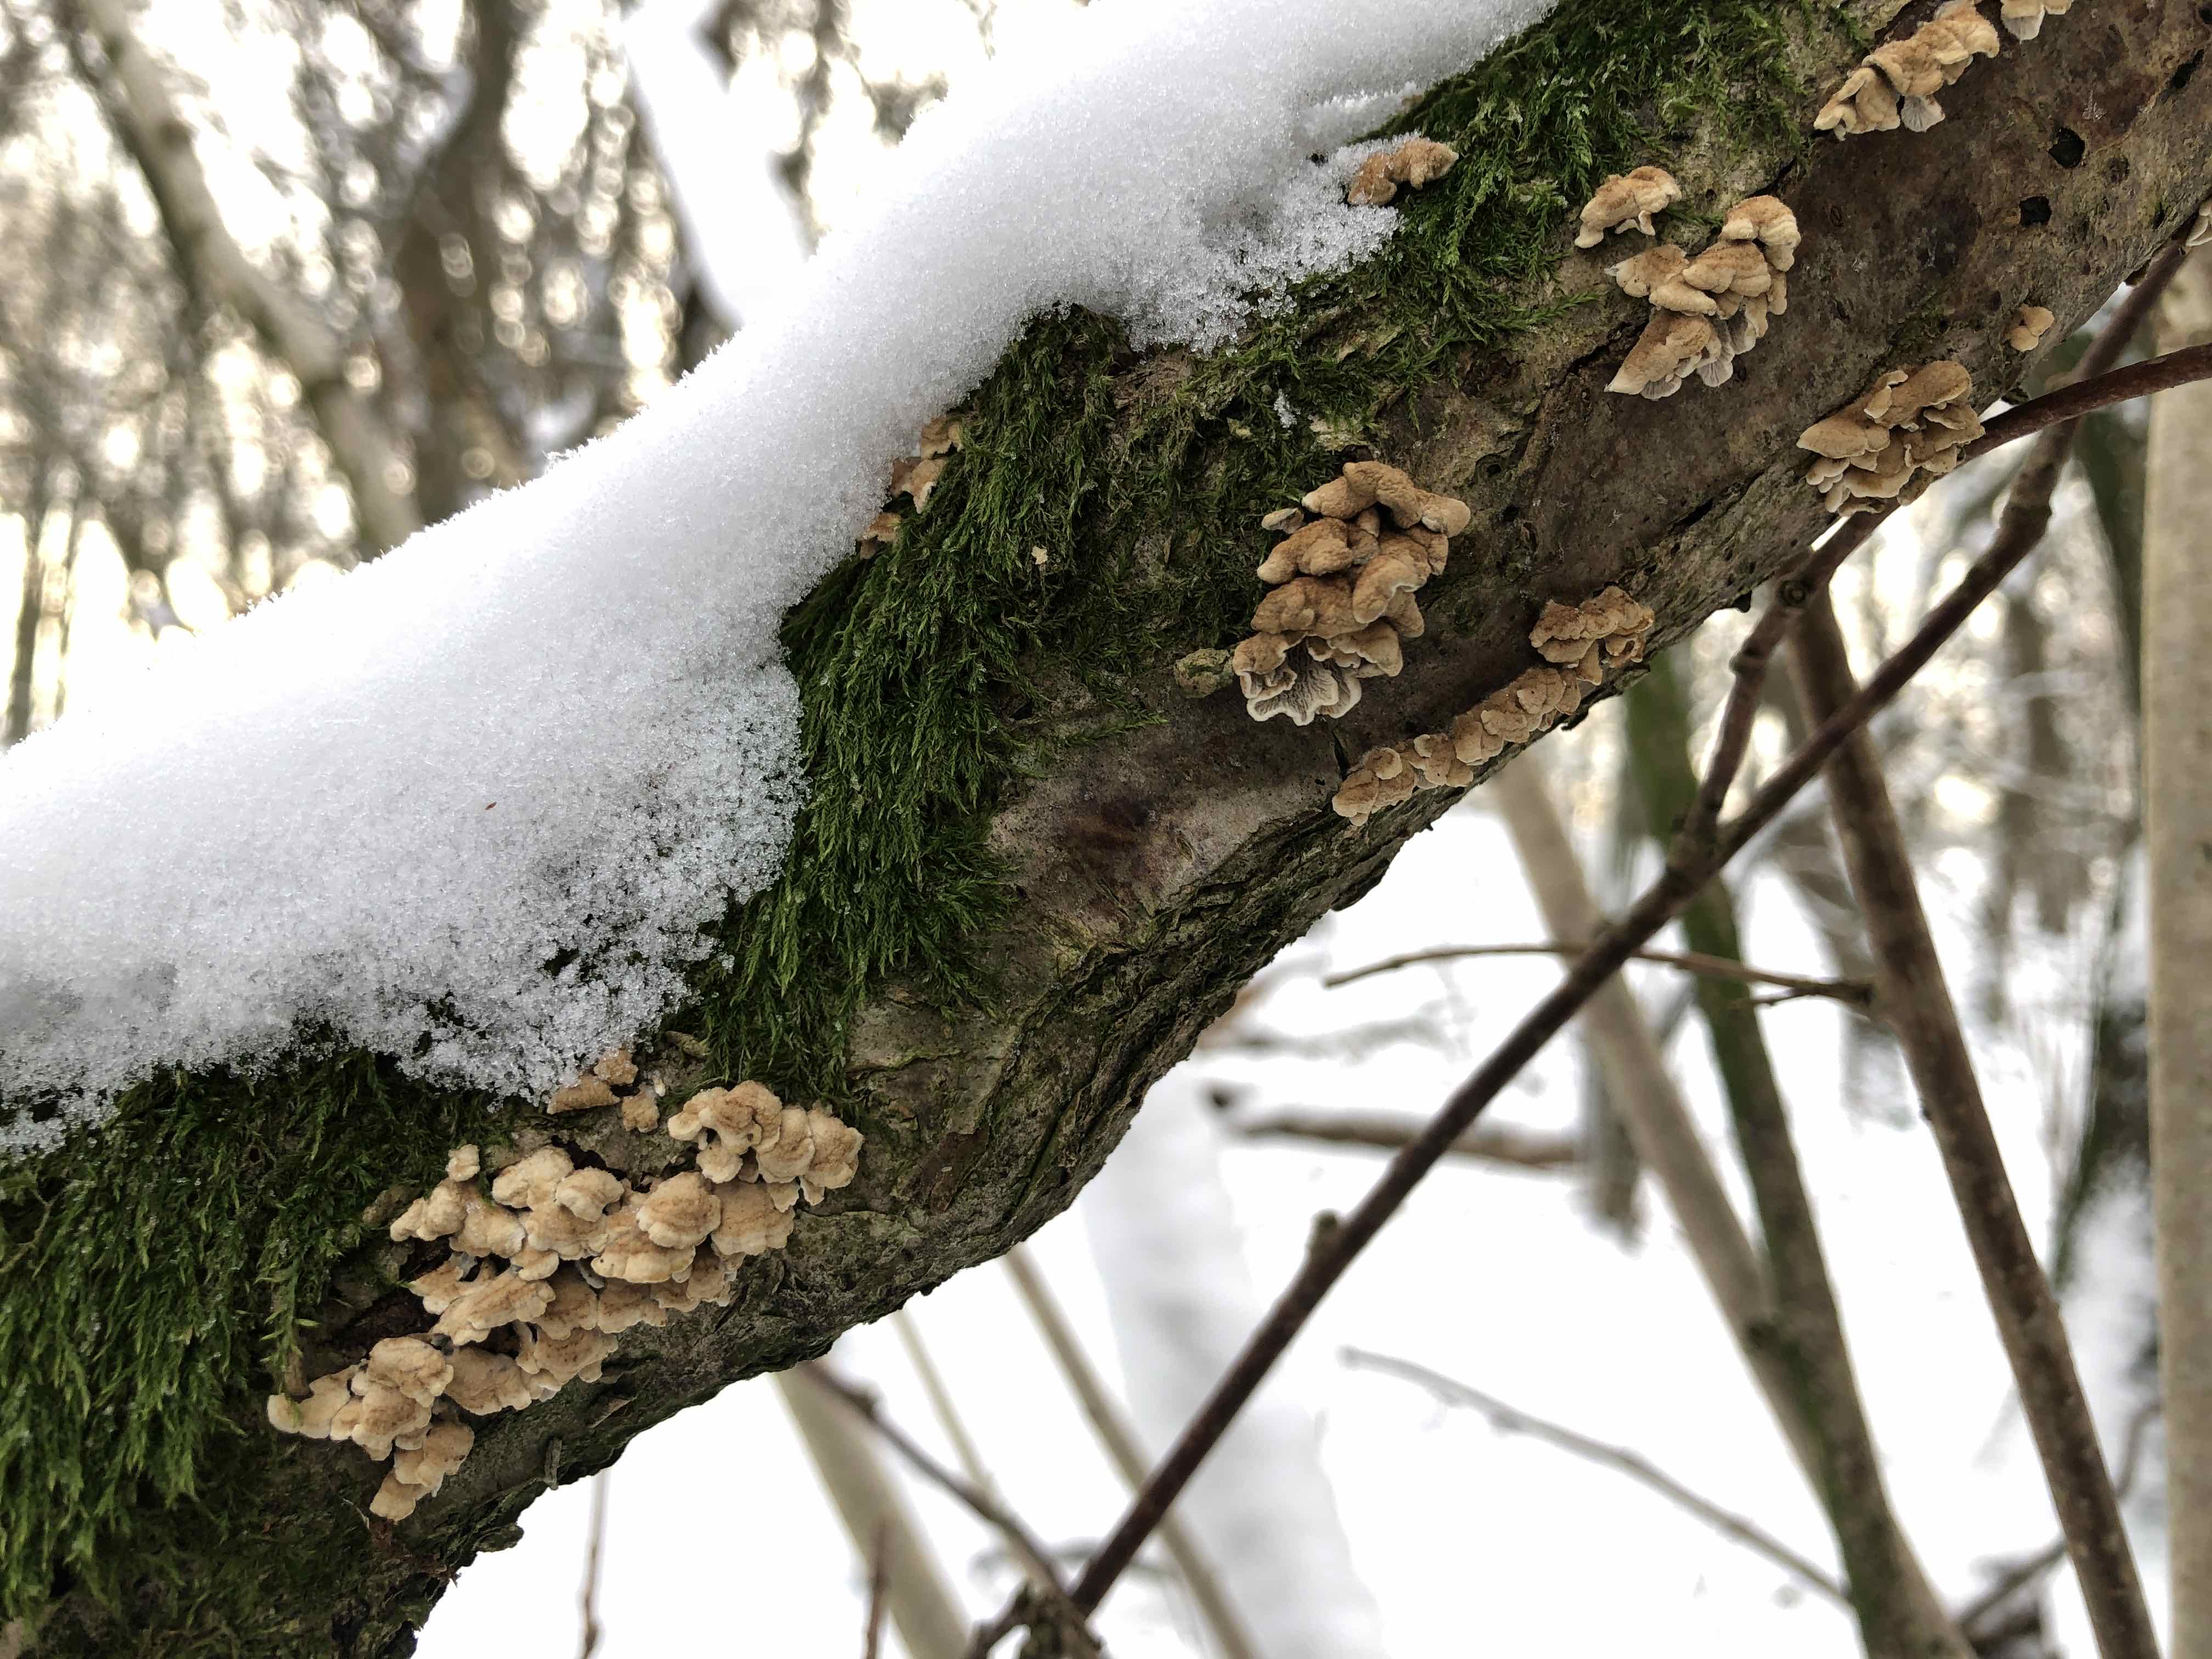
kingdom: Fungi
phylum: Basidiomycota
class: Agaricomycetes
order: Amylocorticiales
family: Amylocorticiaceae
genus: Plicaturopsis
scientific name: Plicaturopsis crispa
